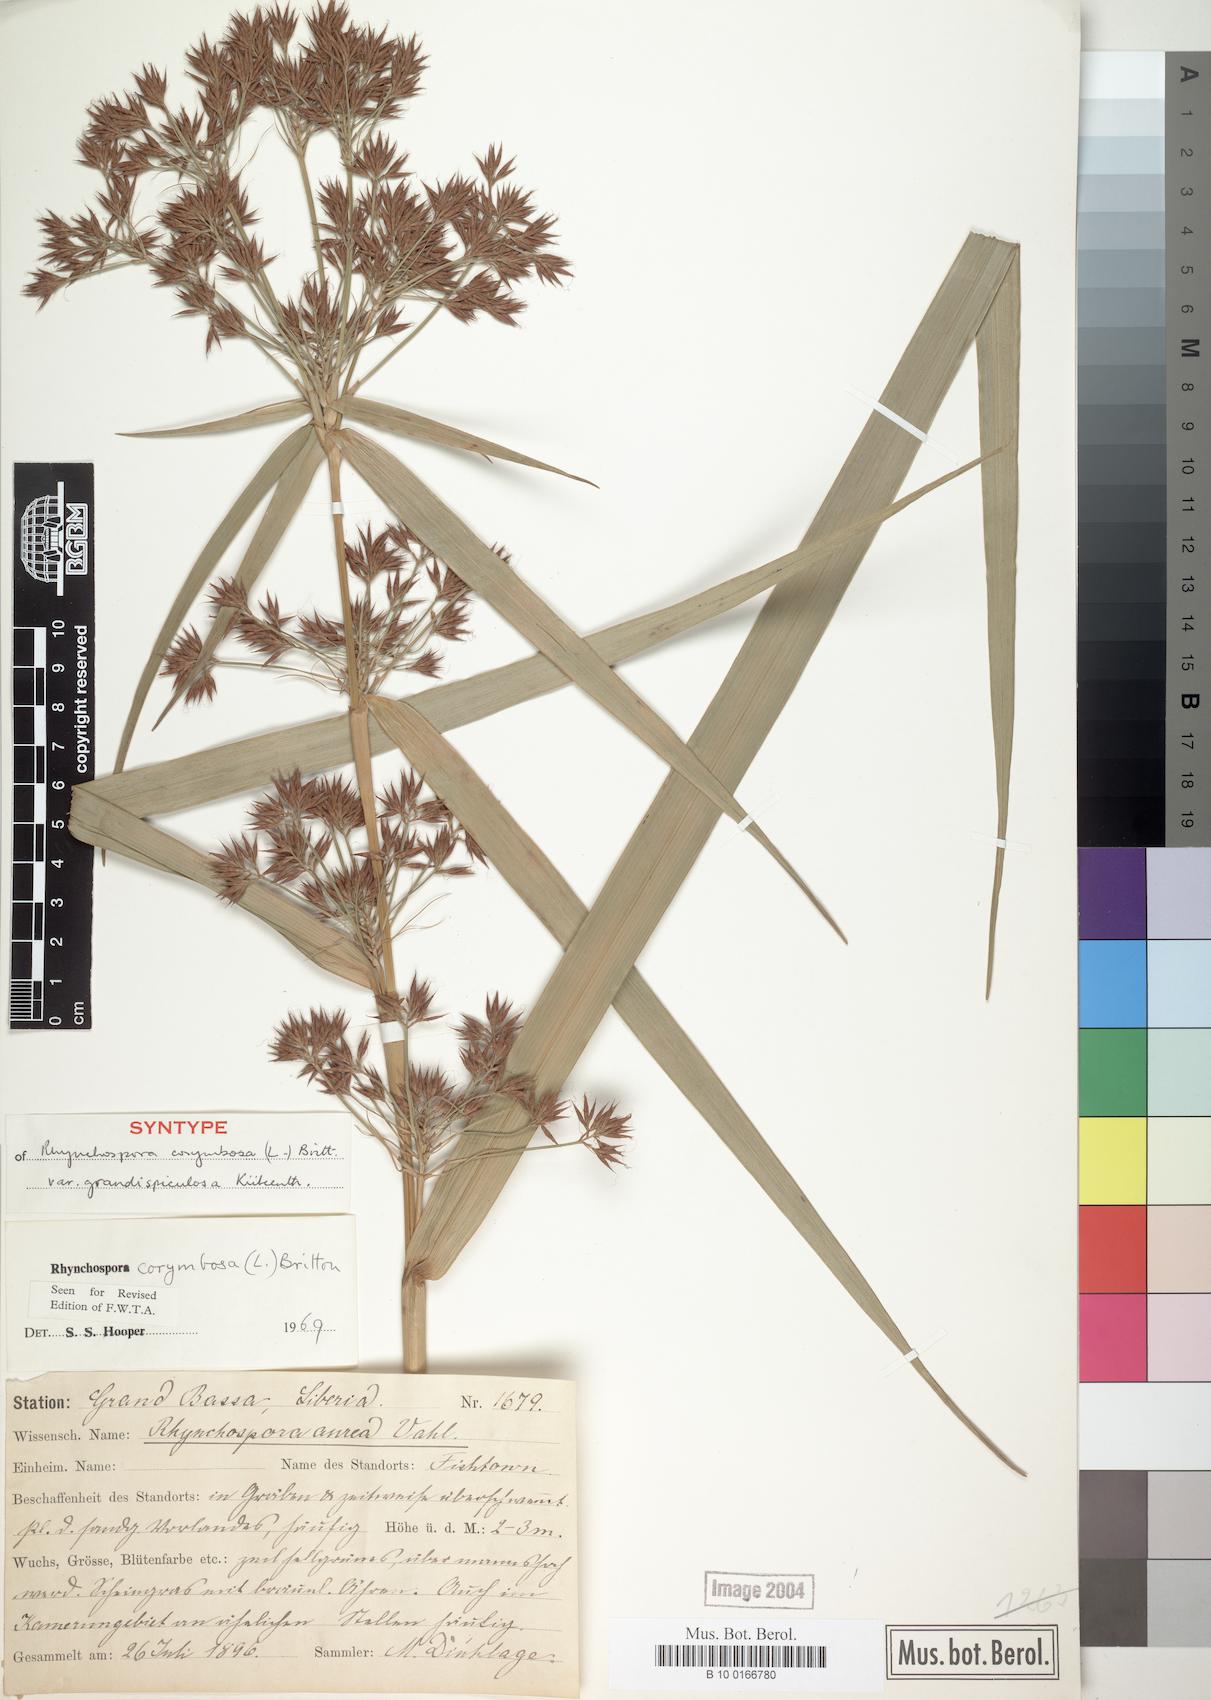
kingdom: Plantae
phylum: Tracheophyta
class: Liliopsida
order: Poales
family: Cyperaceae
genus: Rhynchospora
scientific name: Rhynchospora corymbosa
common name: Golden beak sedge
